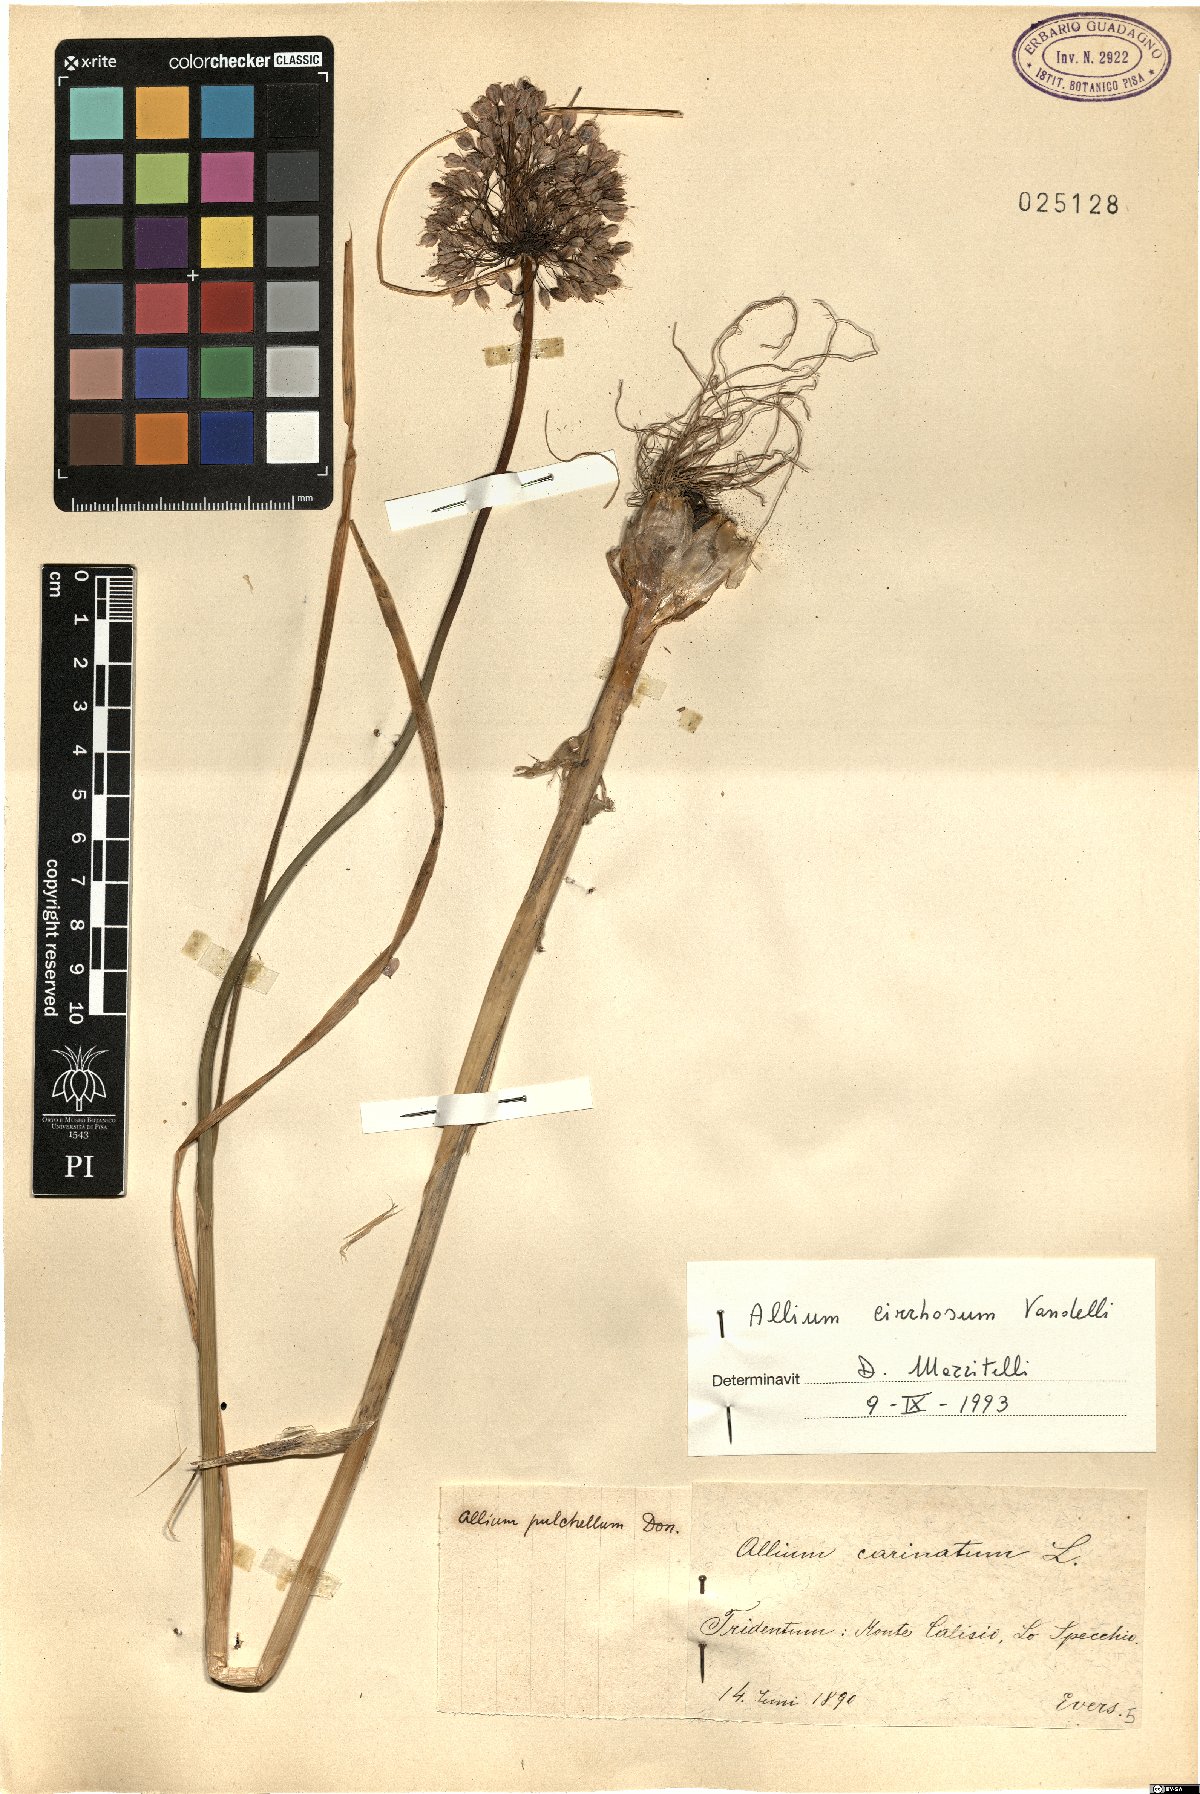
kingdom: Plantae
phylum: Tracheophyta
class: Liliopsida
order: Asparagales
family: Amaryllidaceae
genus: Allium
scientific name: Allium coloratum
